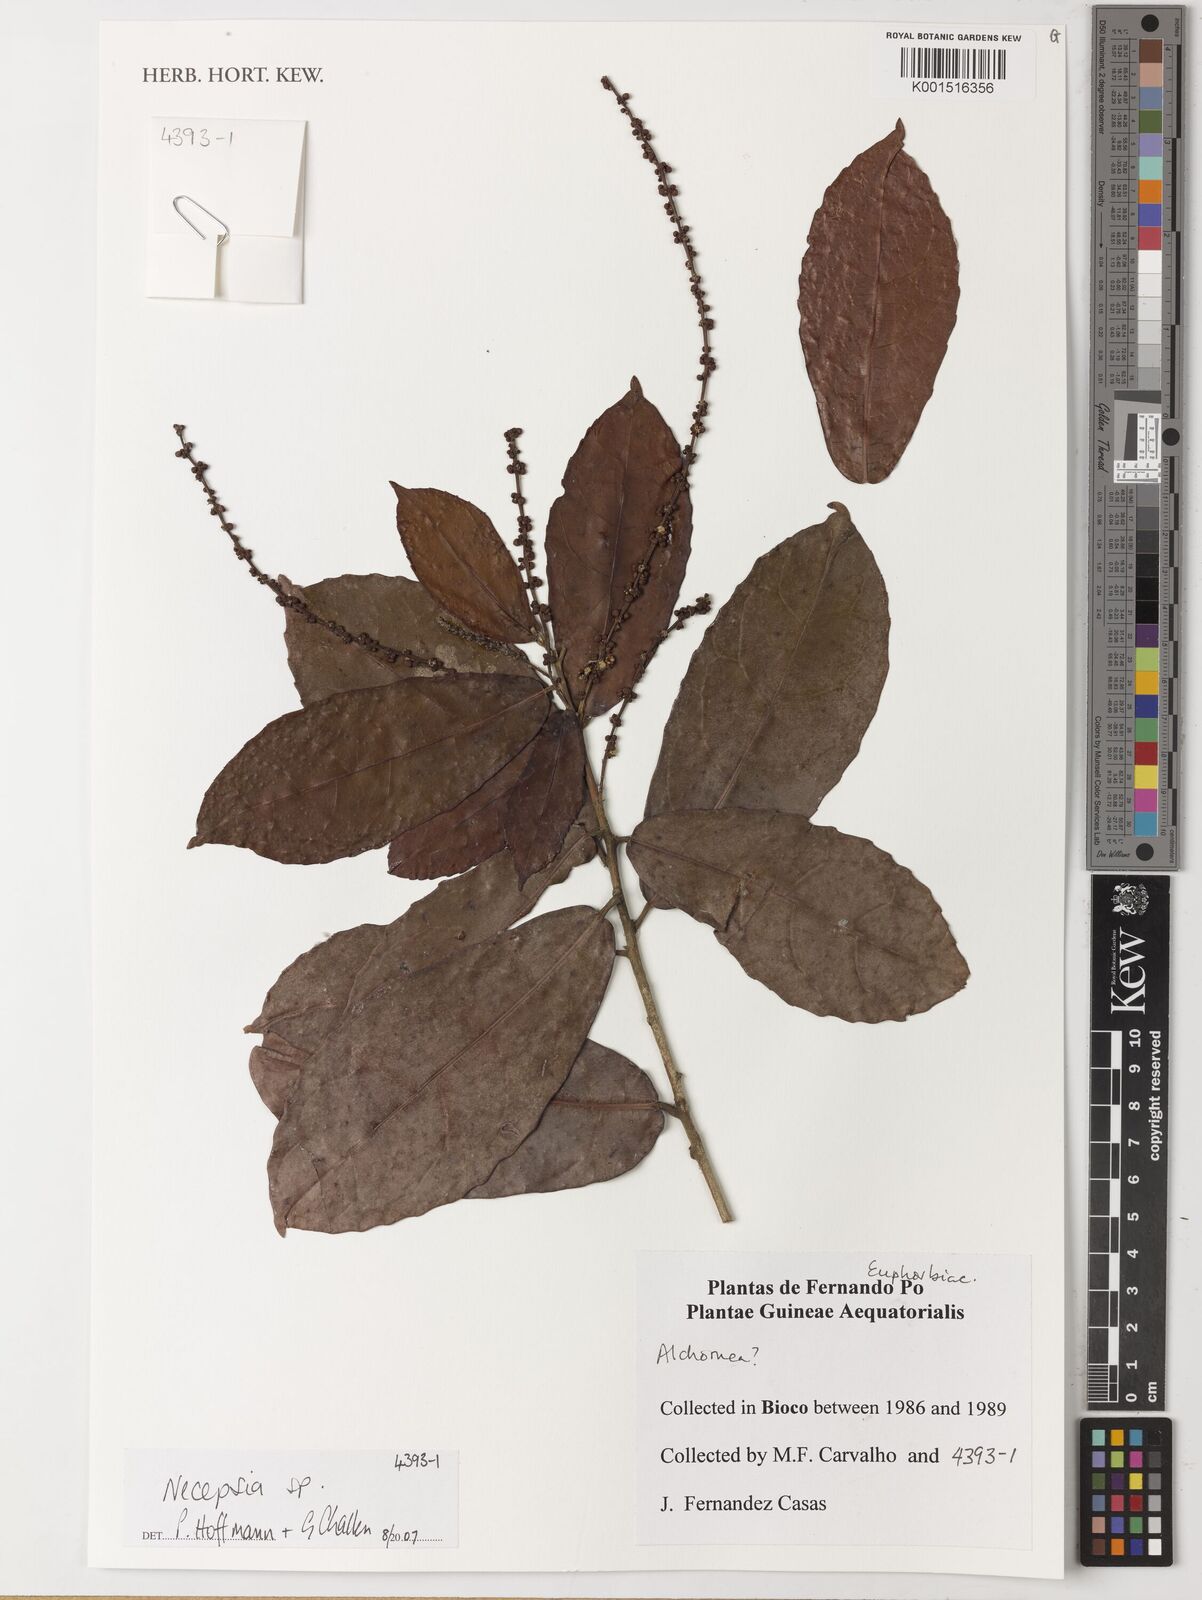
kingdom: Plantae
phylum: Tracheophyta
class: Magnoliopsida
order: Malpighiales
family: Euphorbiaceae
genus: Necepsia
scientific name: Necepsia
